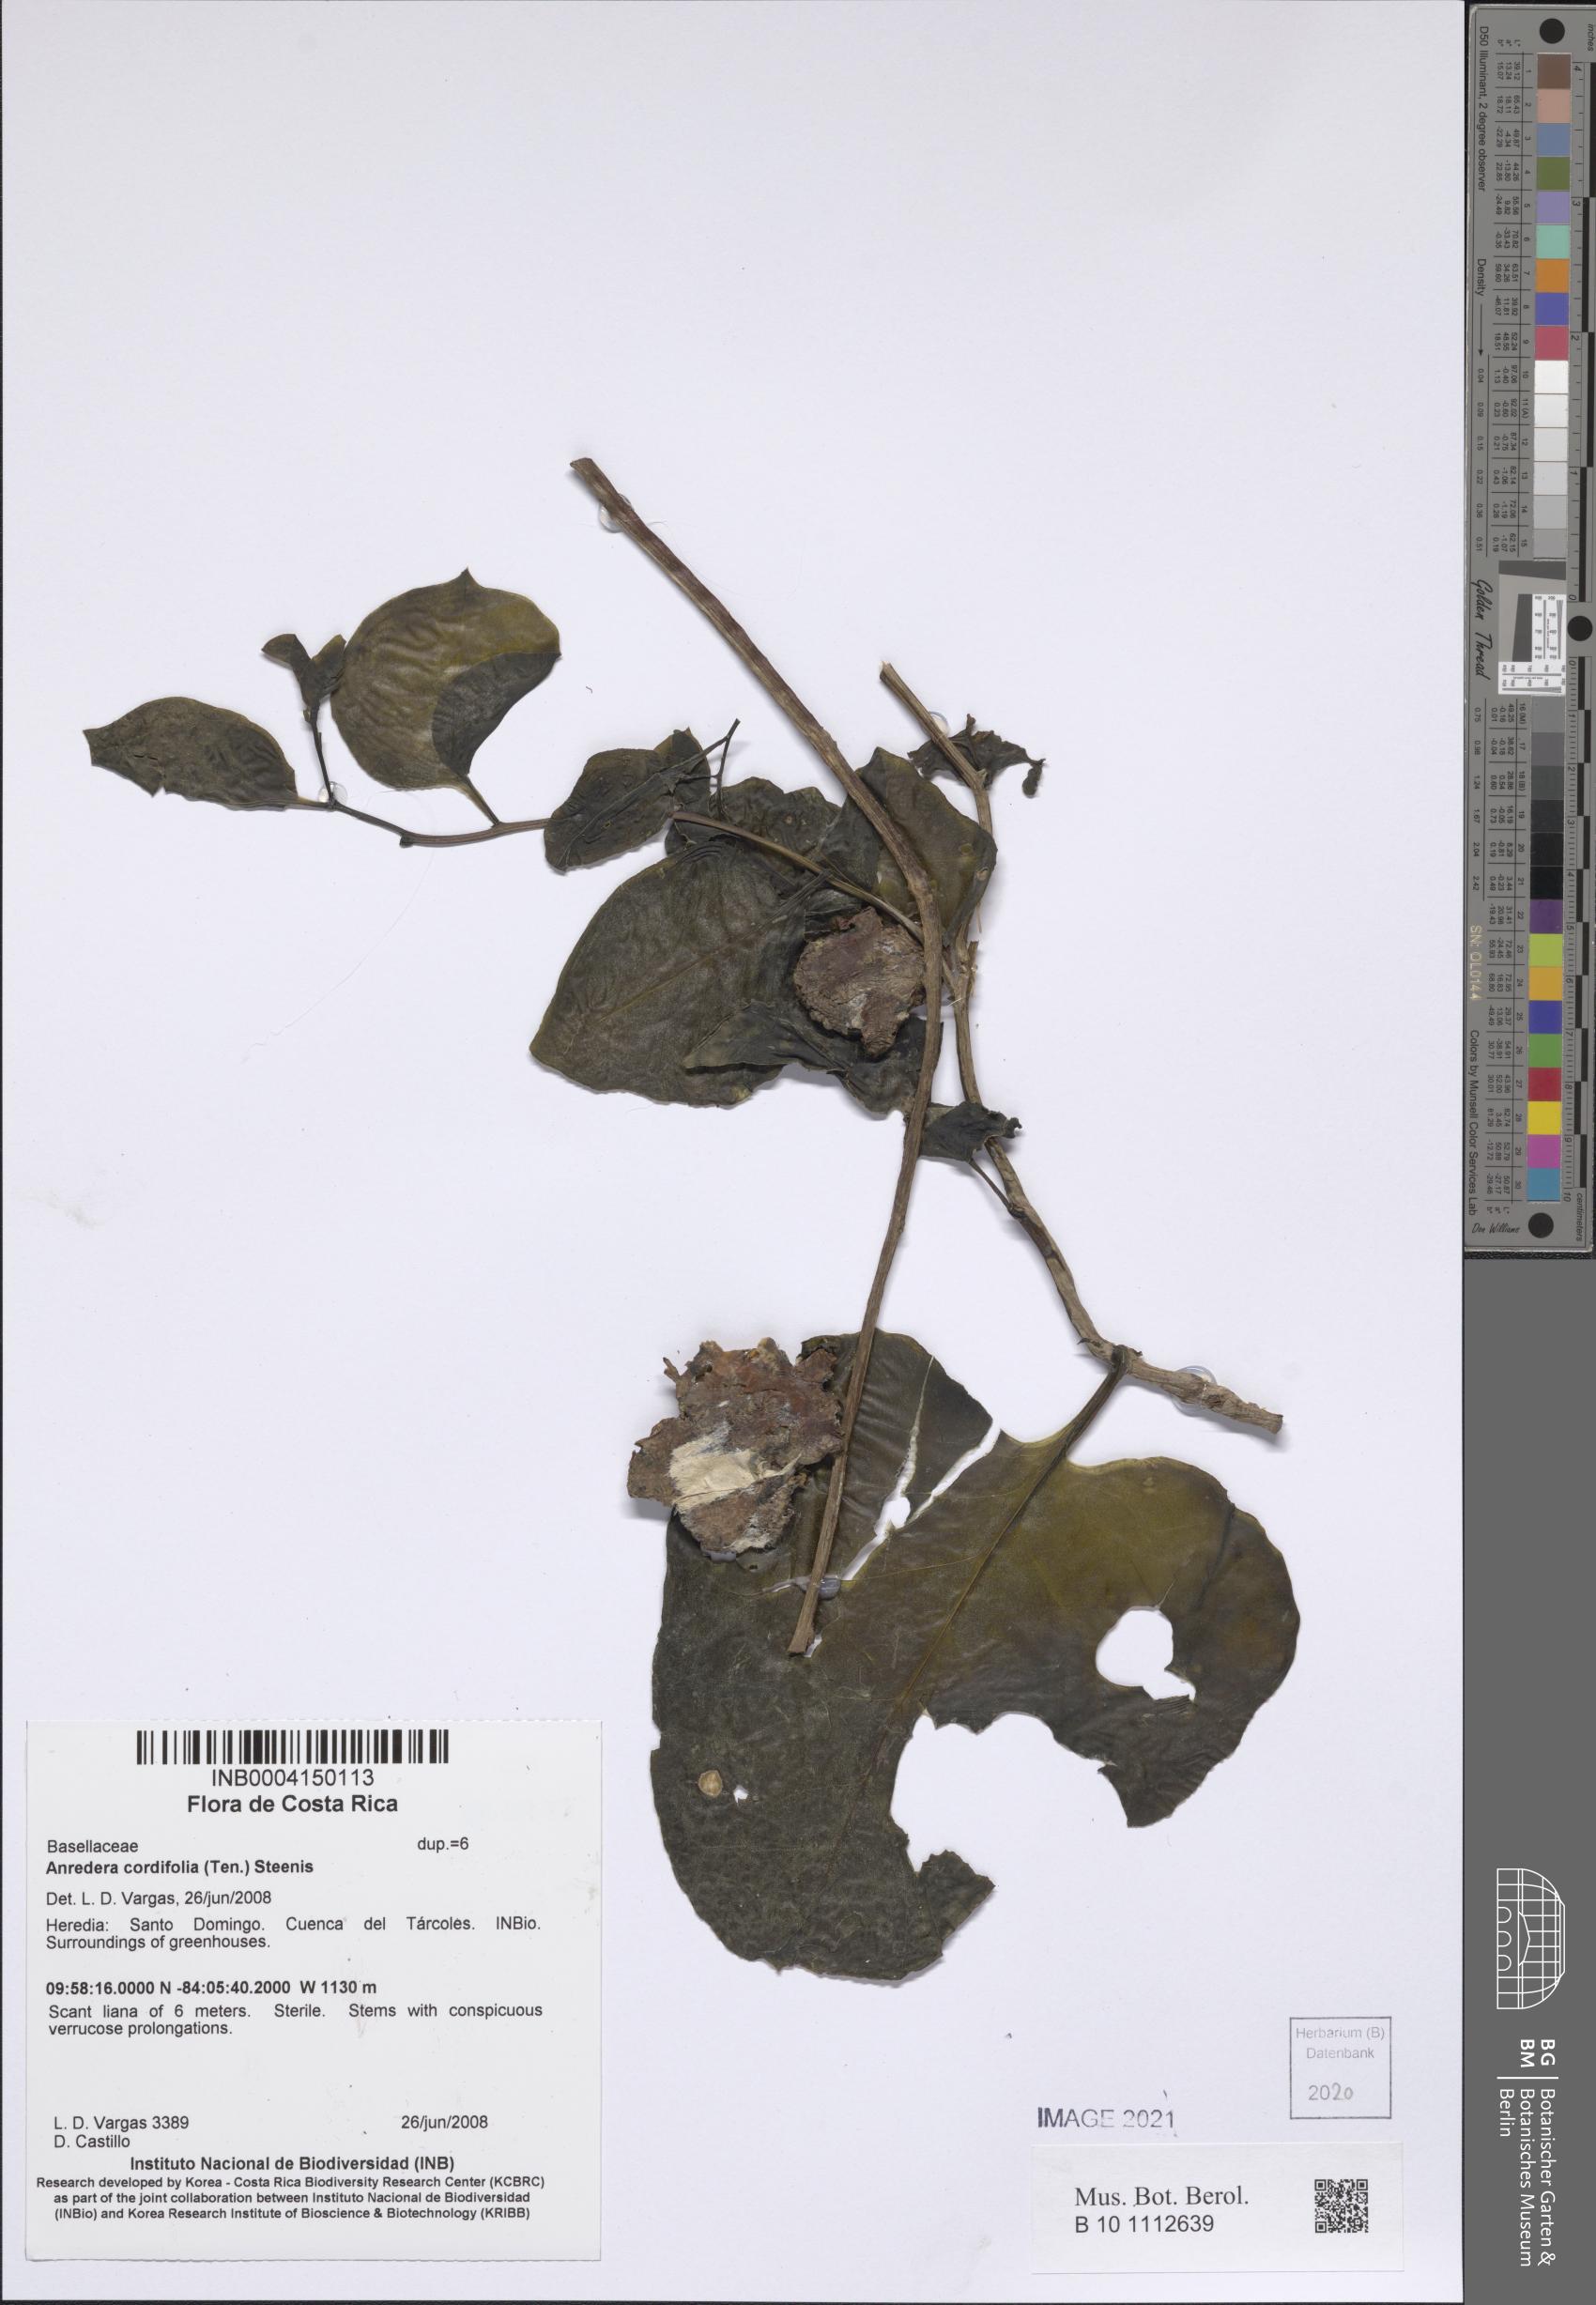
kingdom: Plantae
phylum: Tracheophyta
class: Magnoliopsida
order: Caryophyllales
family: Basellaceae
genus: Anredera
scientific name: Anredera cordifolia
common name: Heartleaf madeiravine
